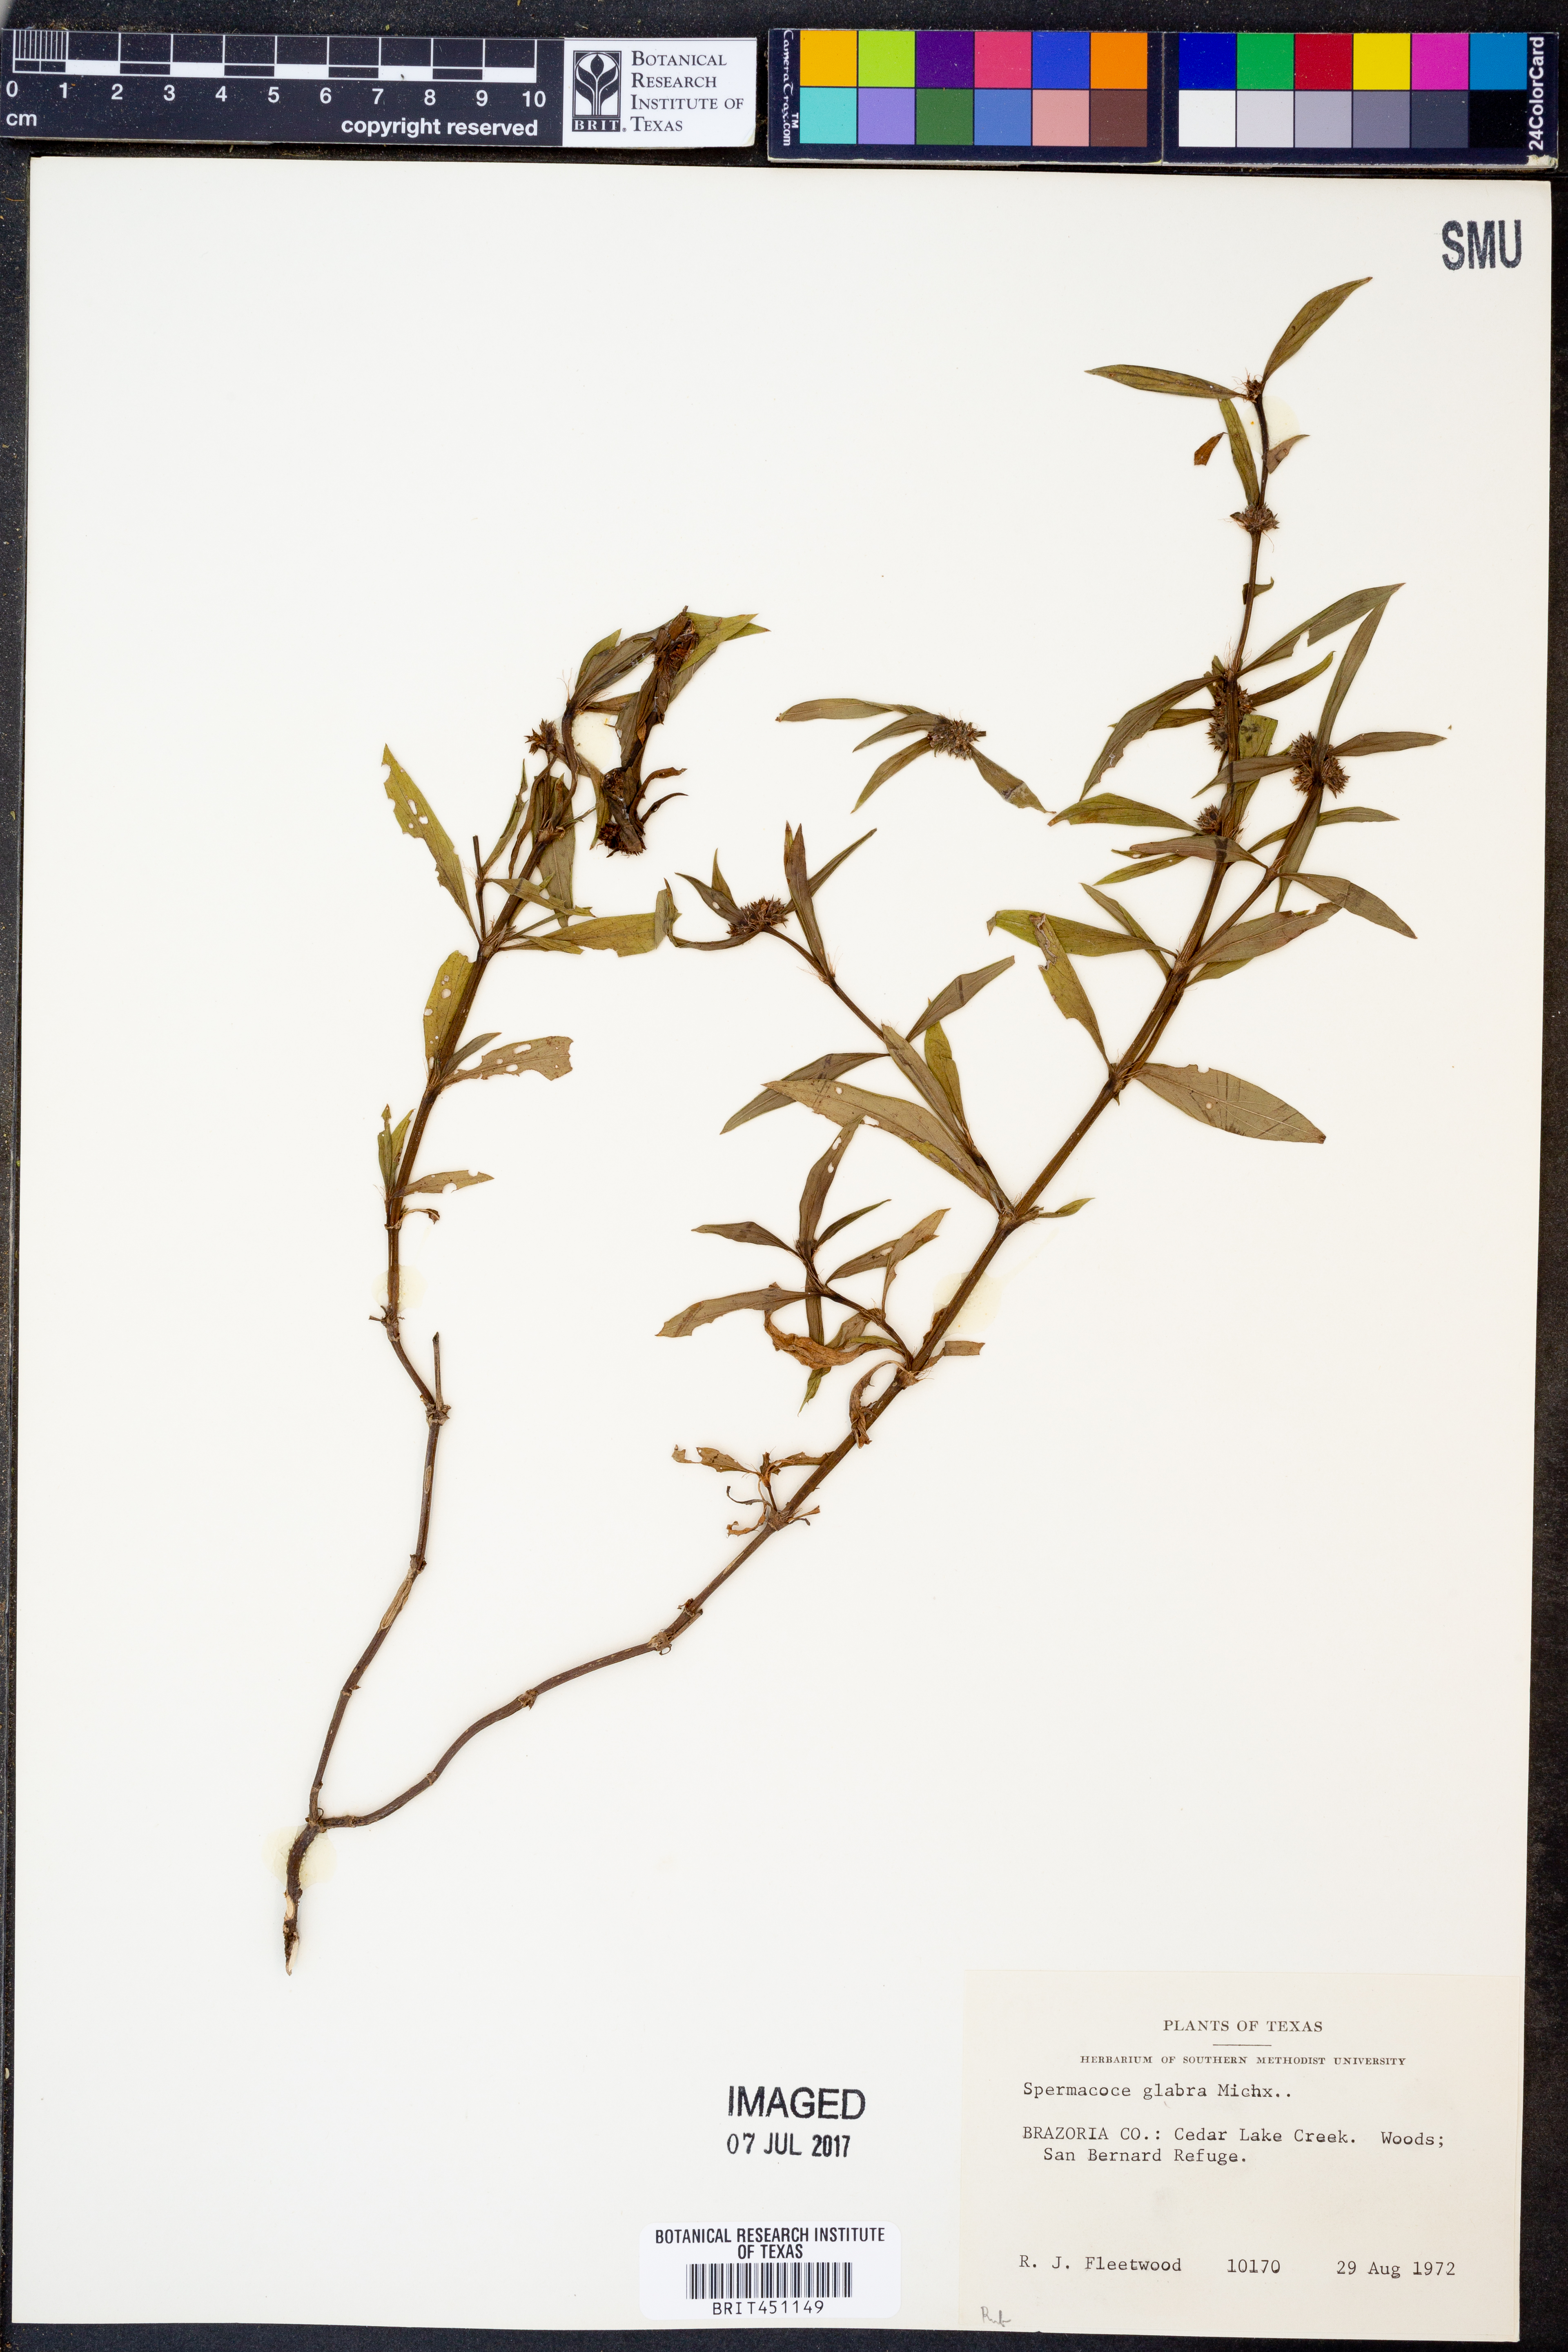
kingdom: Plantae
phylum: Tracheophyta
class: Magnoliopsida
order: Gentianales
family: Rubiaceae
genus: Spermacoce
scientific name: Spermacoce glabra
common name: Smooth buttonweed
